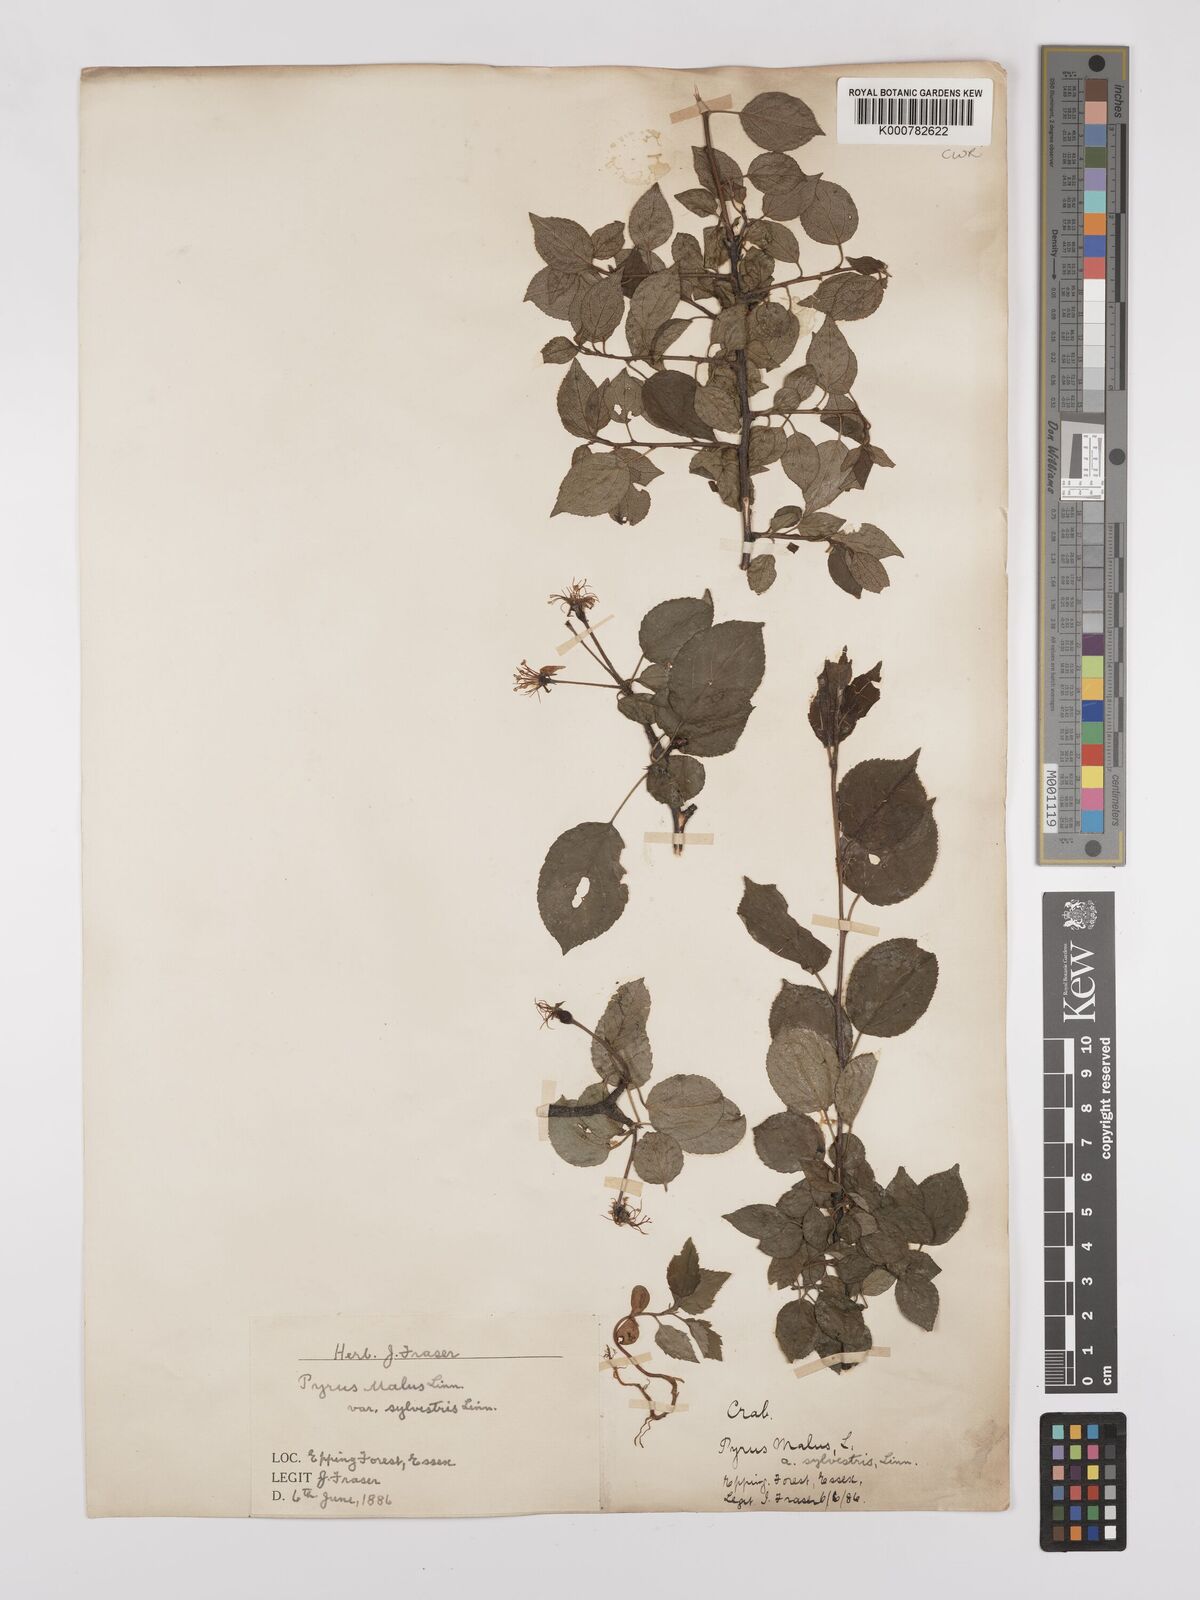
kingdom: Plantae
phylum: Tracheophyta
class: Magnoliopsida
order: Rosales
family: Rosaceae
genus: Malus
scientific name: Malus sylvestris
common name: Crab apple
